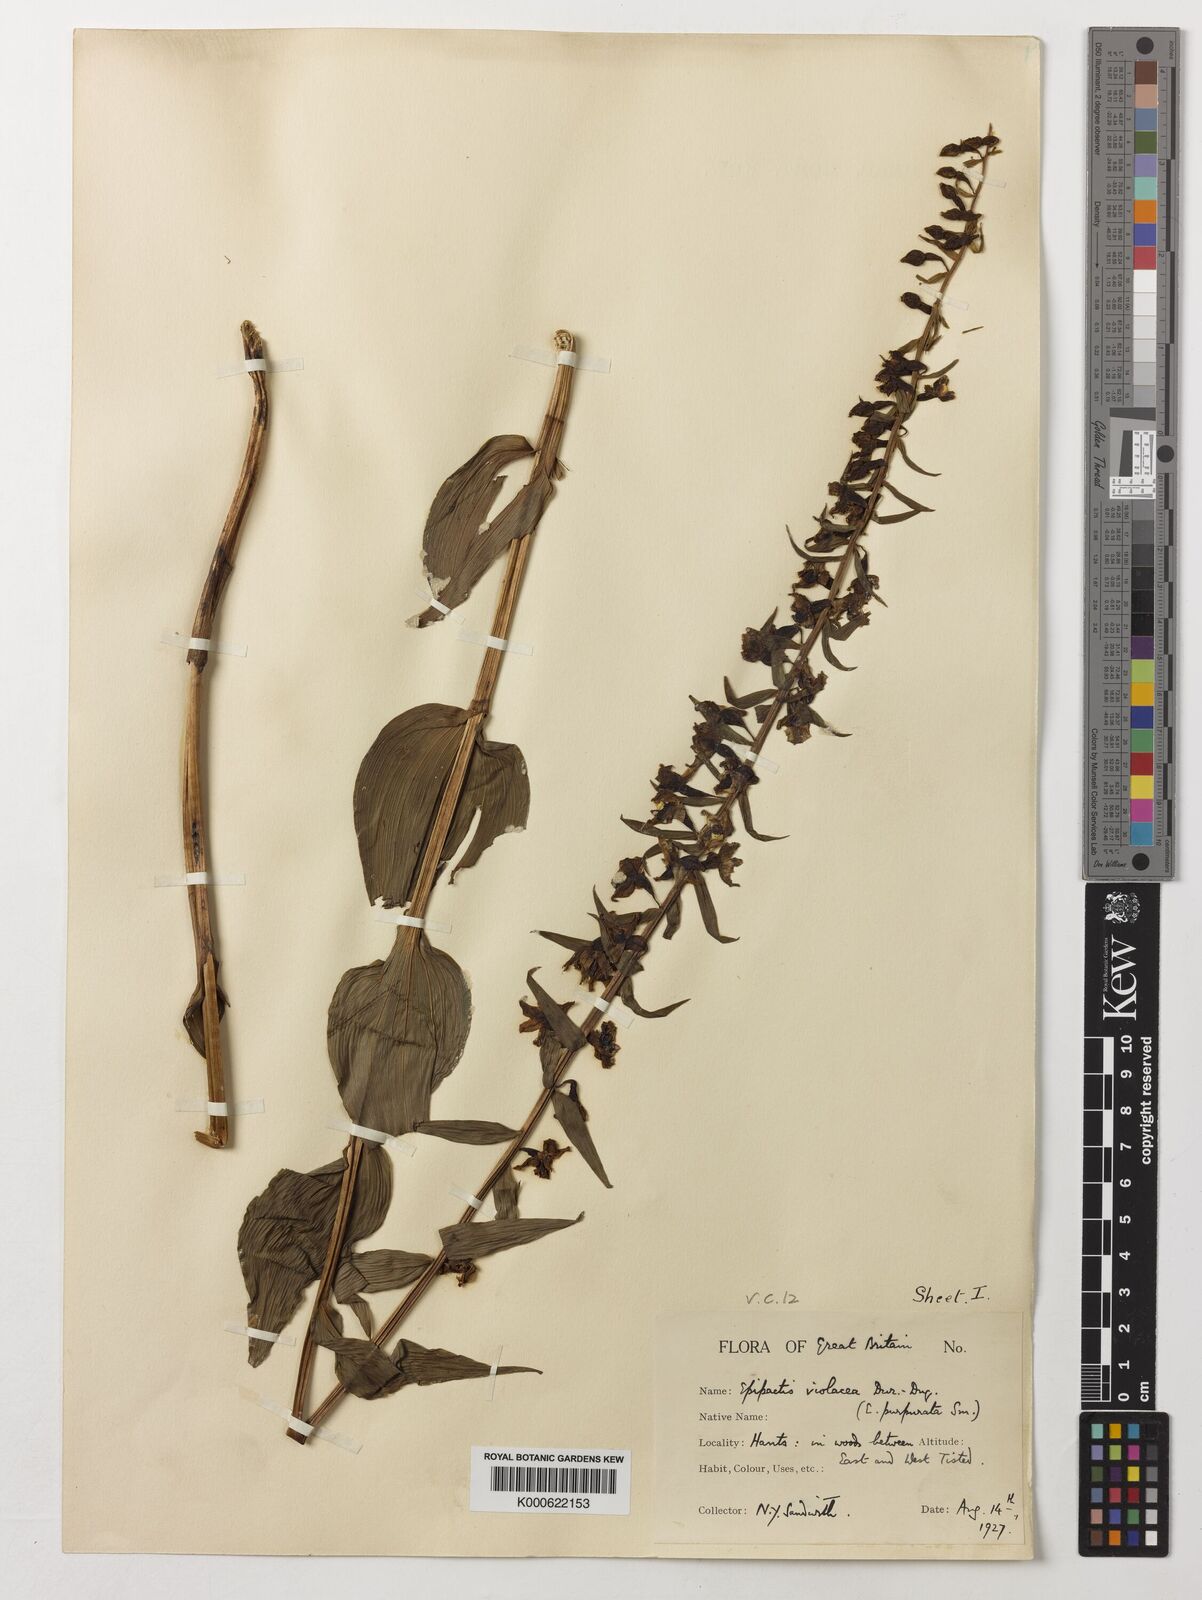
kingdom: Plantae
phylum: Tracheophyta
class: Liliopsida
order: Asparagales
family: Orchidaceae
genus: Epipactis
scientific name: Epipactis purpurata
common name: Violet helleborine
